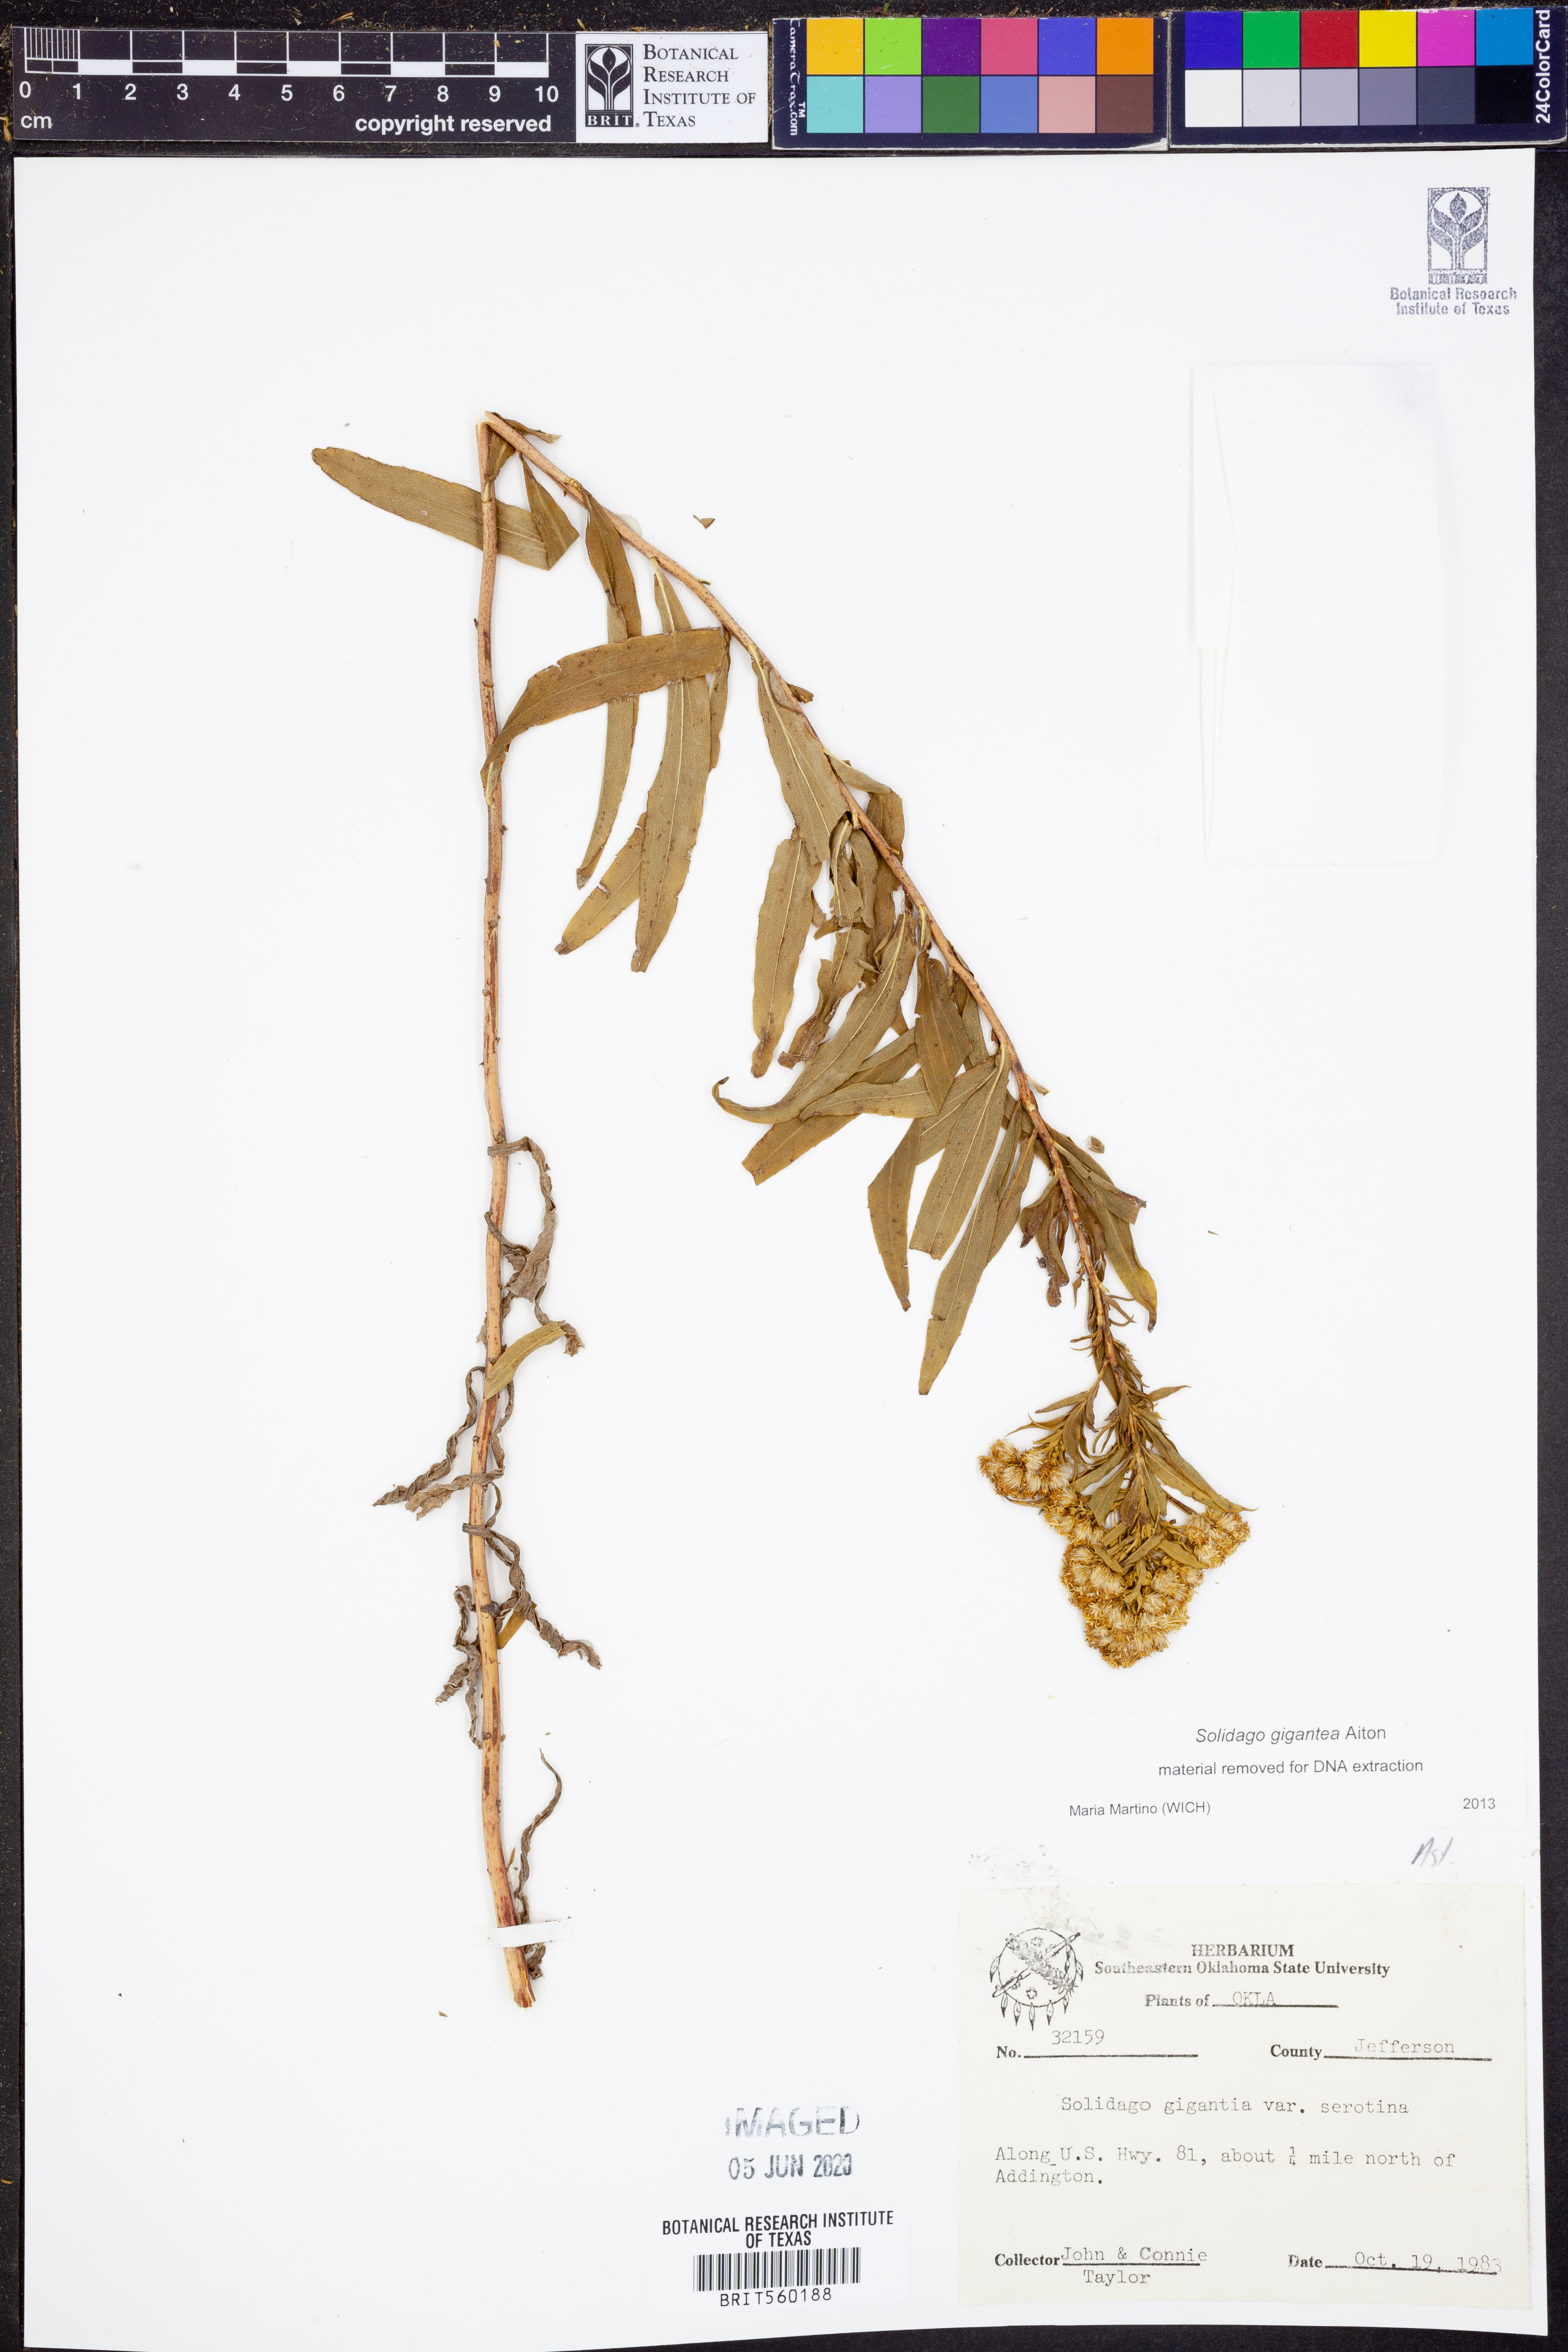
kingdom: Plantae
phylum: Tracheophyta
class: Magnoliopsida
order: Asterales
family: Asteraceae
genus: Solidago
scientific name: Solidago gigantea
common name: Giant goldenrod
